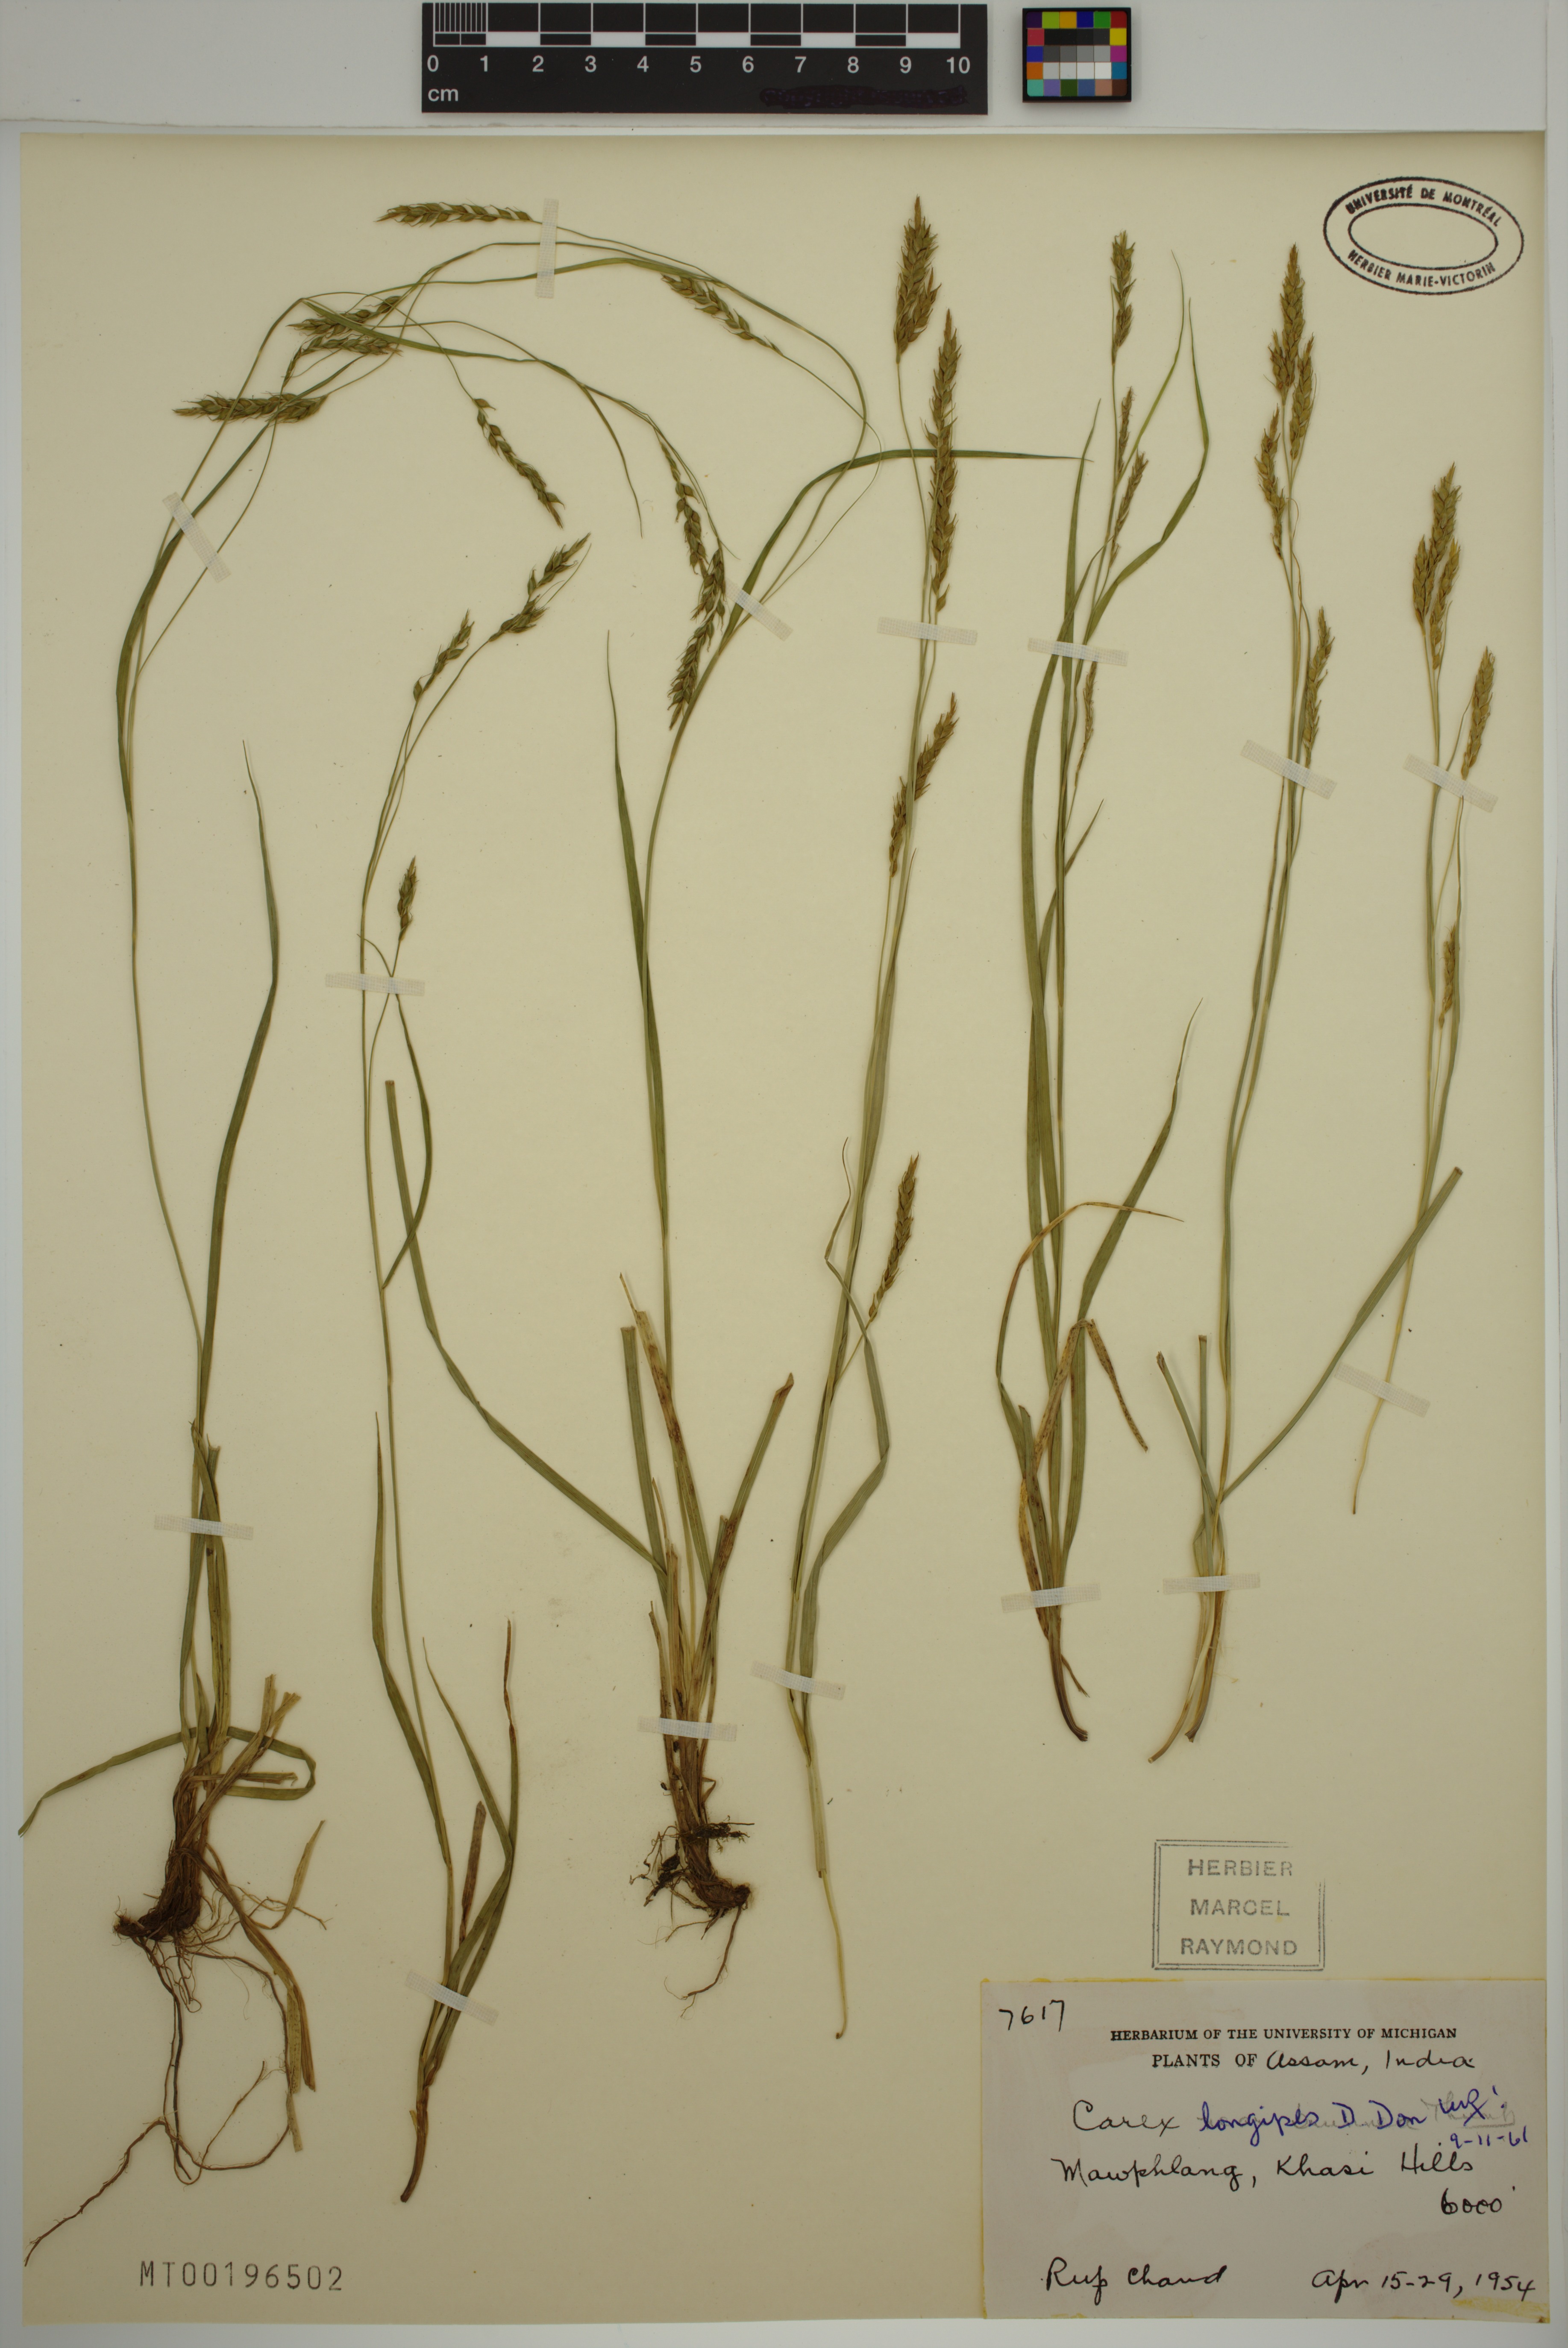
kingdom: Plantae
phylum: Tracheophyta
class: Liliopsida
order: Poales
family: Cyperaceae
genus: Carex
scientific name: Carex longipes
